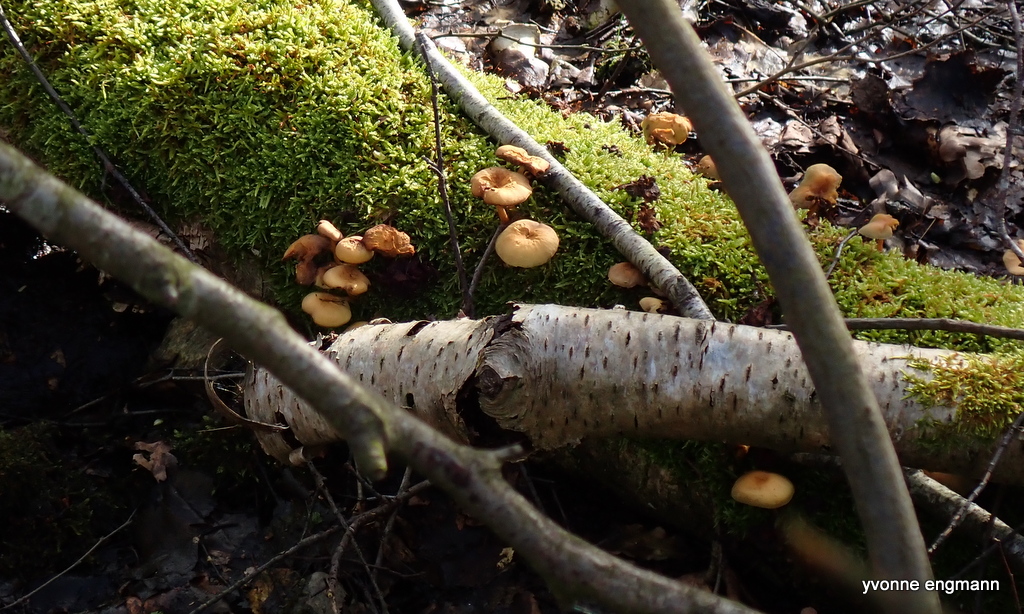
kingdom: Fungi
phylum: Basidiomycota
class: Agaricomycetes
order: Agaricales
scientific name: Agaricales
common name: champignonordenen
